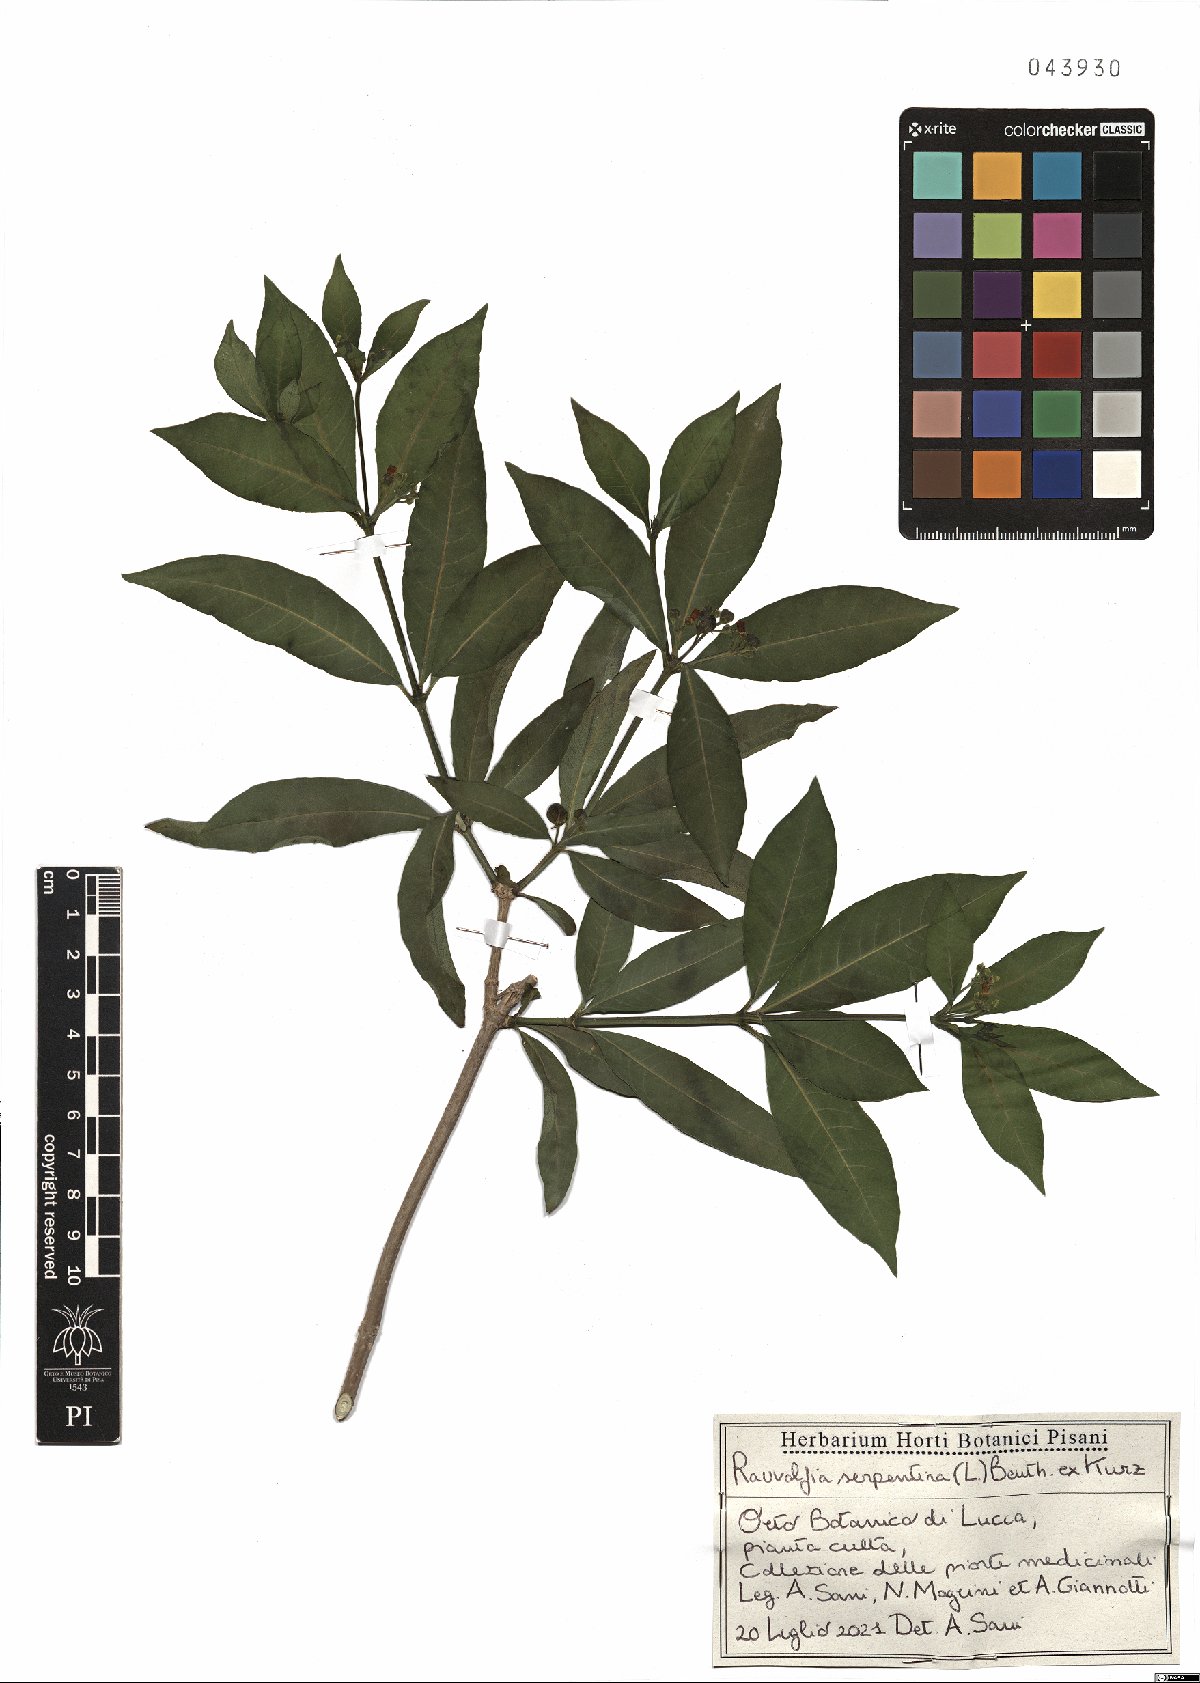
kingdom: Plantae
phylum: Tracheophyta
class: Magnoliopsida
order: Gentianales
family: Apocynaceae
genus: Rauvolfia
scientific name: Rauvolfia serpentina
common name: Ajmaline
